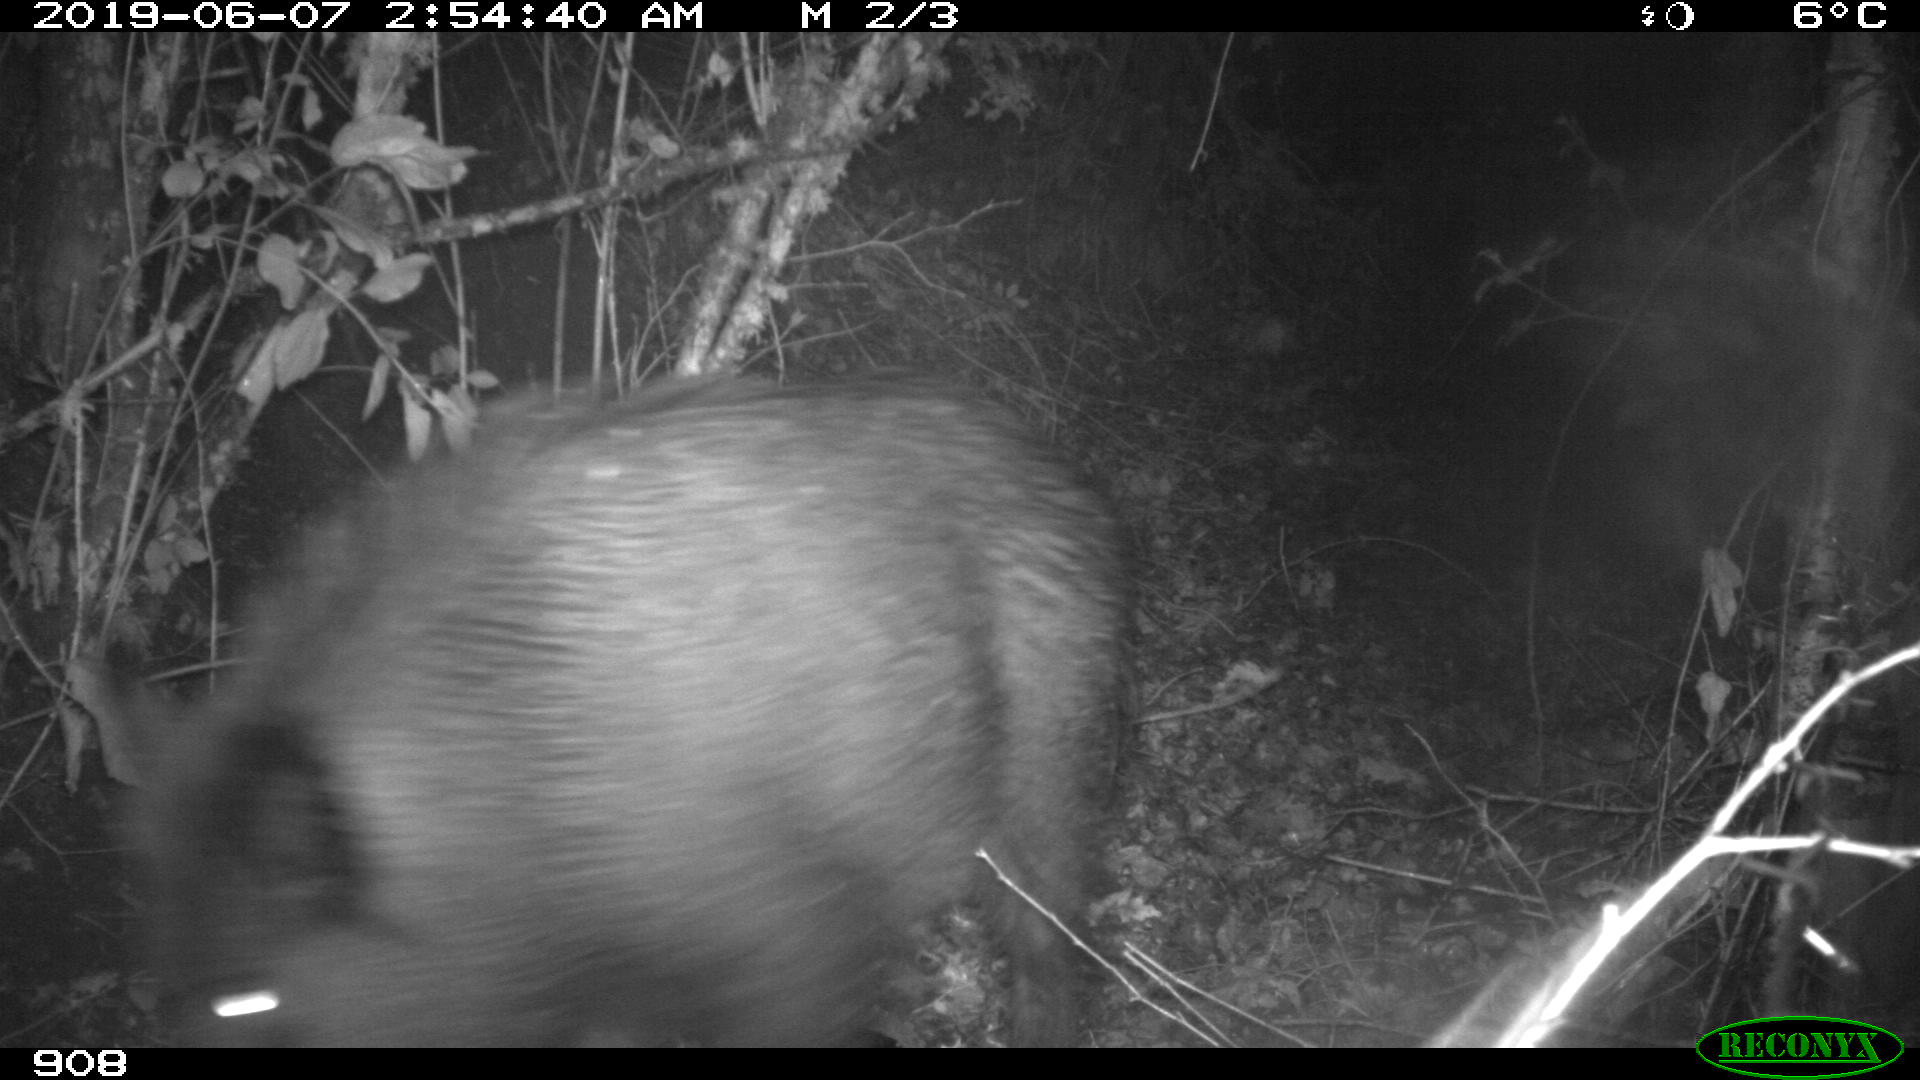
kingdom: Animalia
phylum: Chordata
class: Mammalia
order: Artiodactyla
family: Suidae
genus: Sus
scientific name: Sus scrofa
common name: Wild boar
